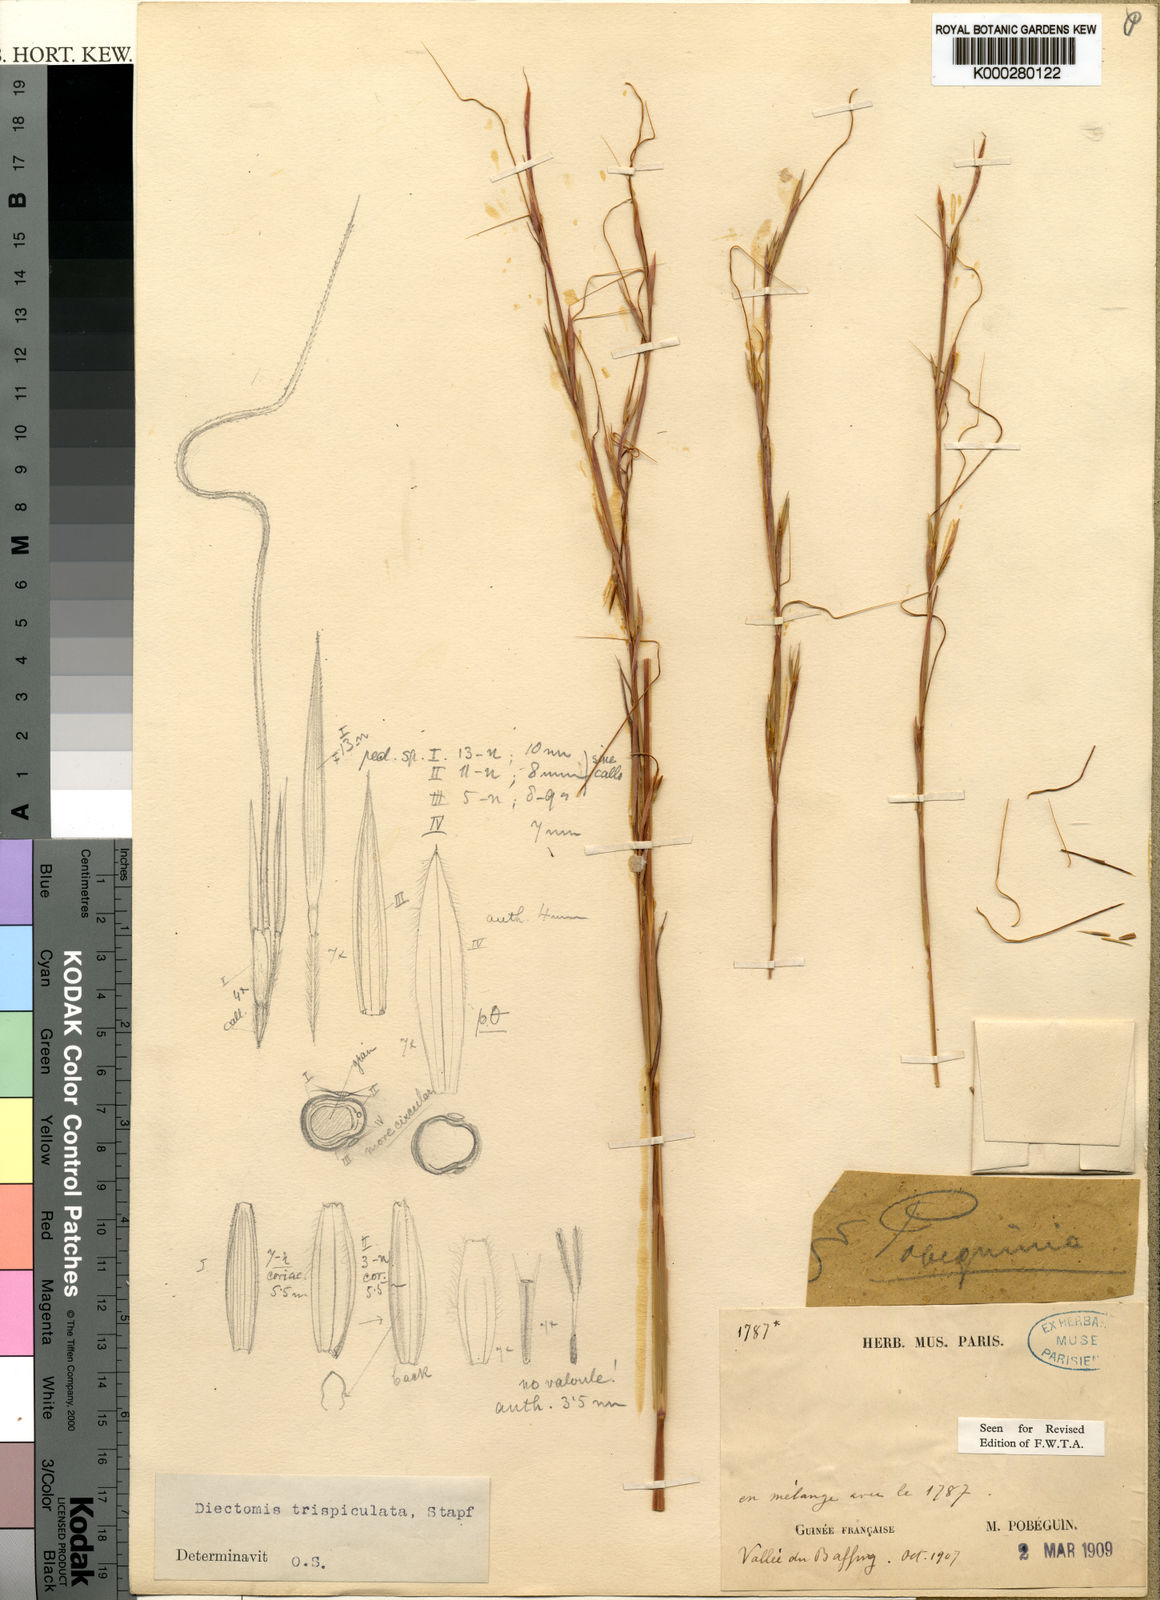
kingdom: Plantae
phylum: Tracheophyta
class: Liliopsida
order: Poales
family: Poaceae
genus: Anadelphia
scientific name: Anadelphia trispiculata
